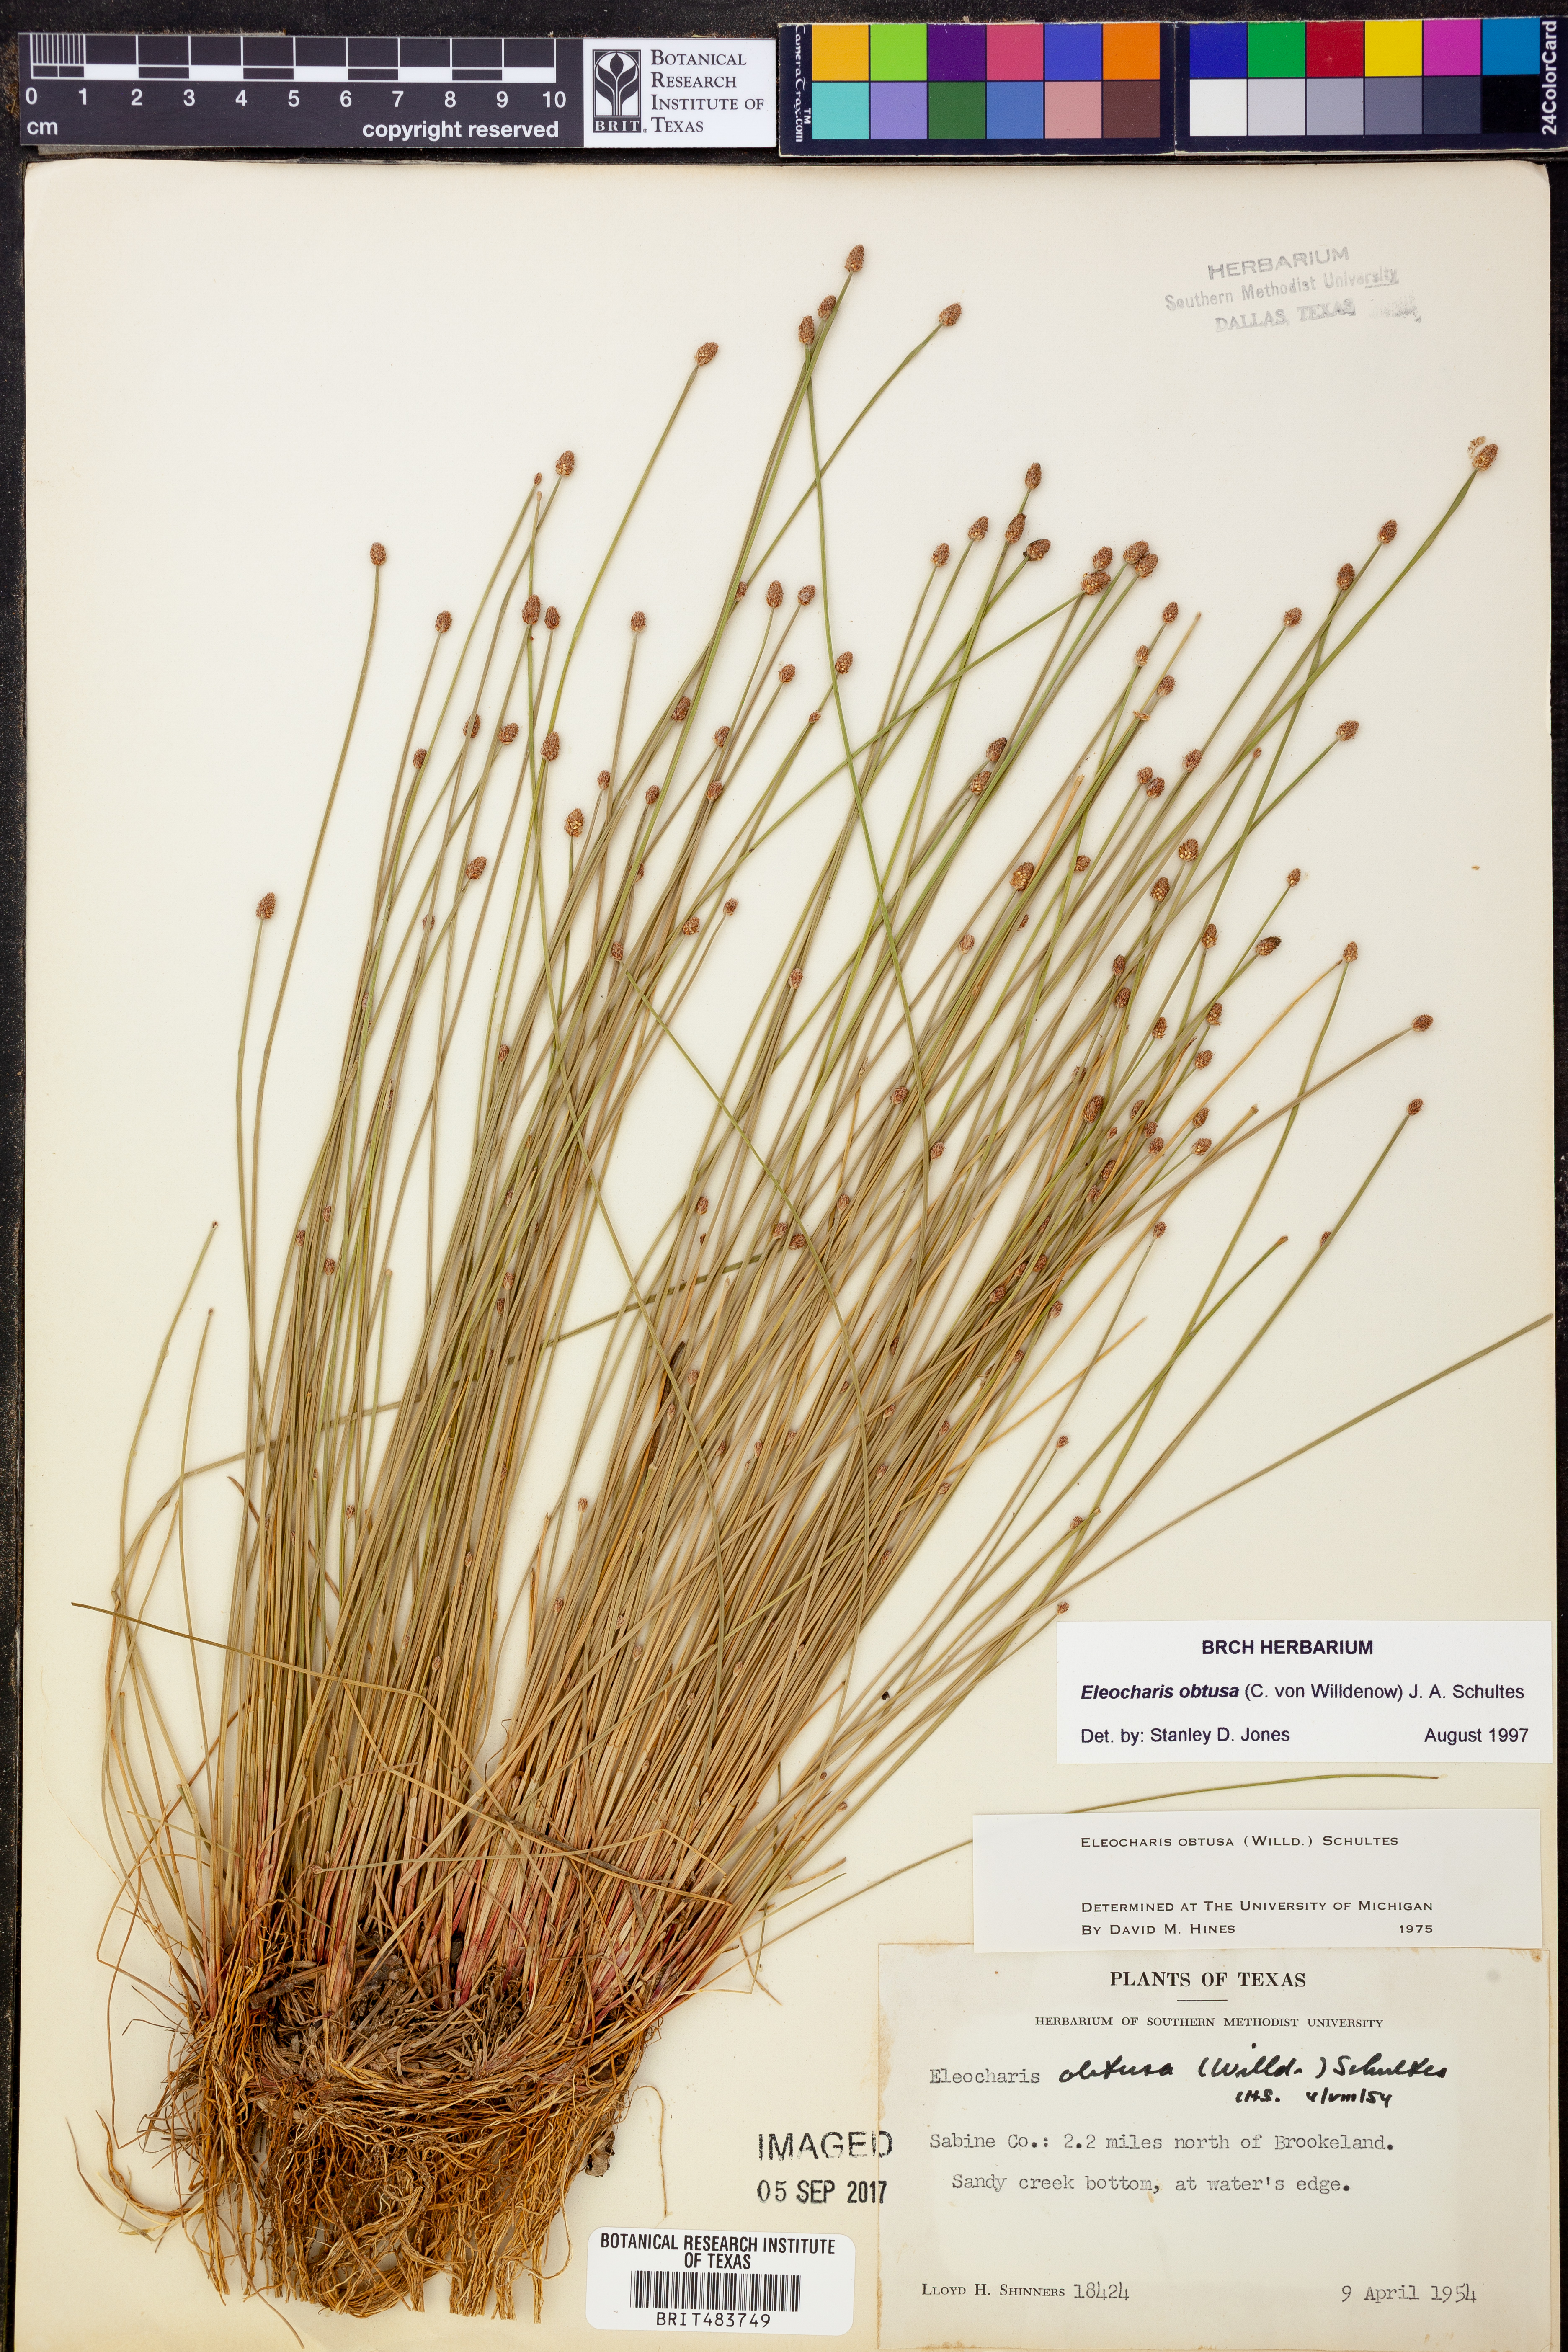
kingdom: Plantae
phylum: Tracheophyta
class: Liliopsida
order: Poales
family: Cyperaceae
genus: Eleocharis
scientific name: Eleocharis obtusa
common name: Blunt spikerush
